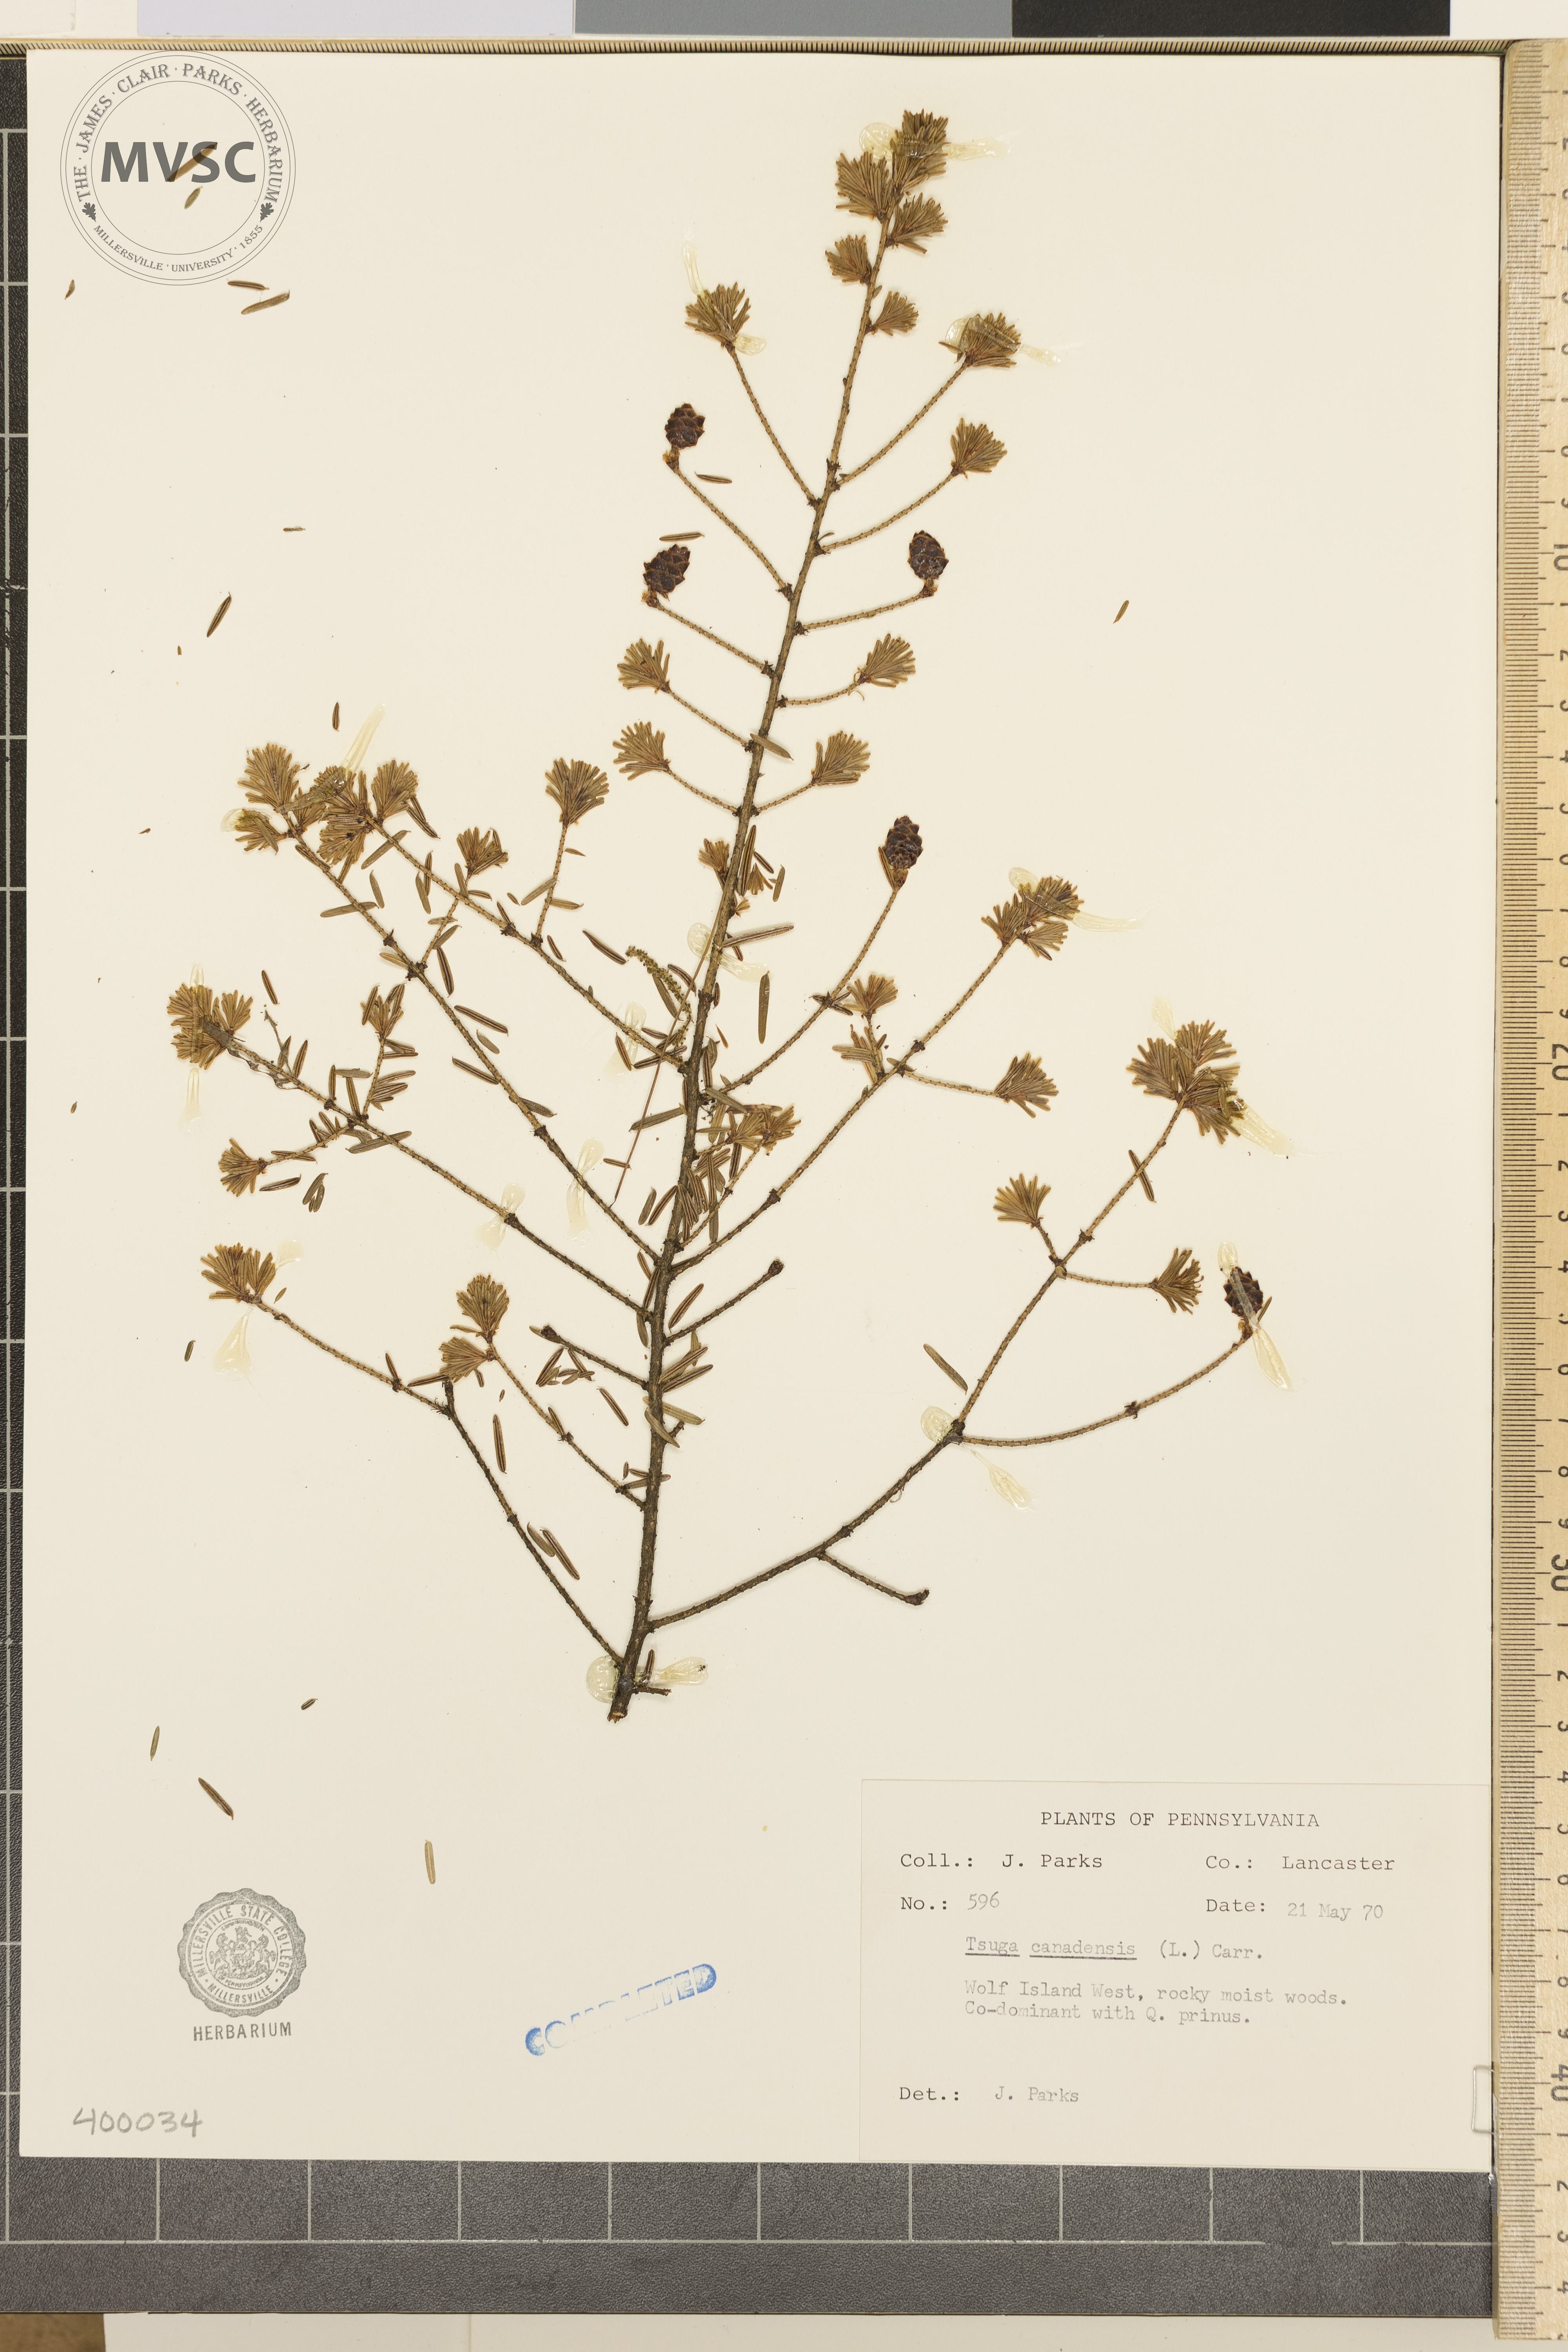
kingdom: Plantae
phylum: Tracheophyta
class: Pinopsida
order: Pinales
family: Pinaceae
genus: Tsuga
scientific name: Tsuga canadensis
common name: Eastern hemlock
